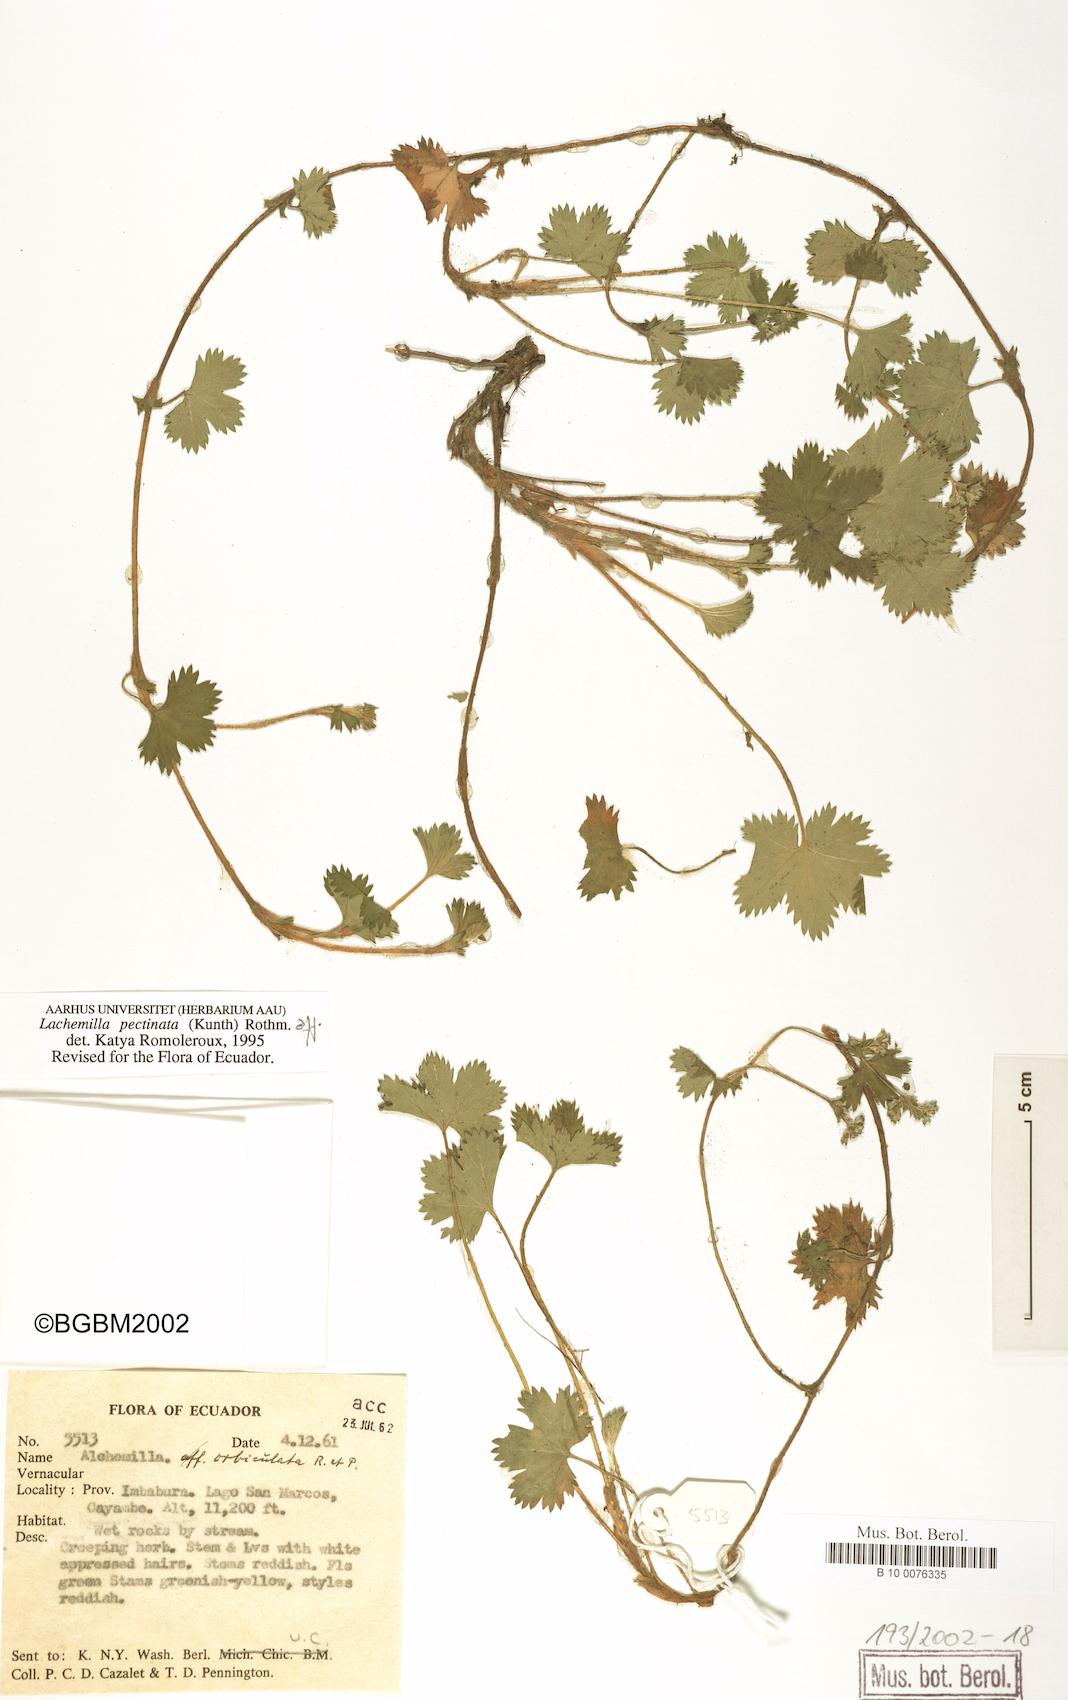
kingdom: Plantae
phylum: Tracheophyta
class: Magnoliopsida
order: Rosales
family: Rosaceae
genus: Lachemilla
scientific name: Lachemilla pectinata
